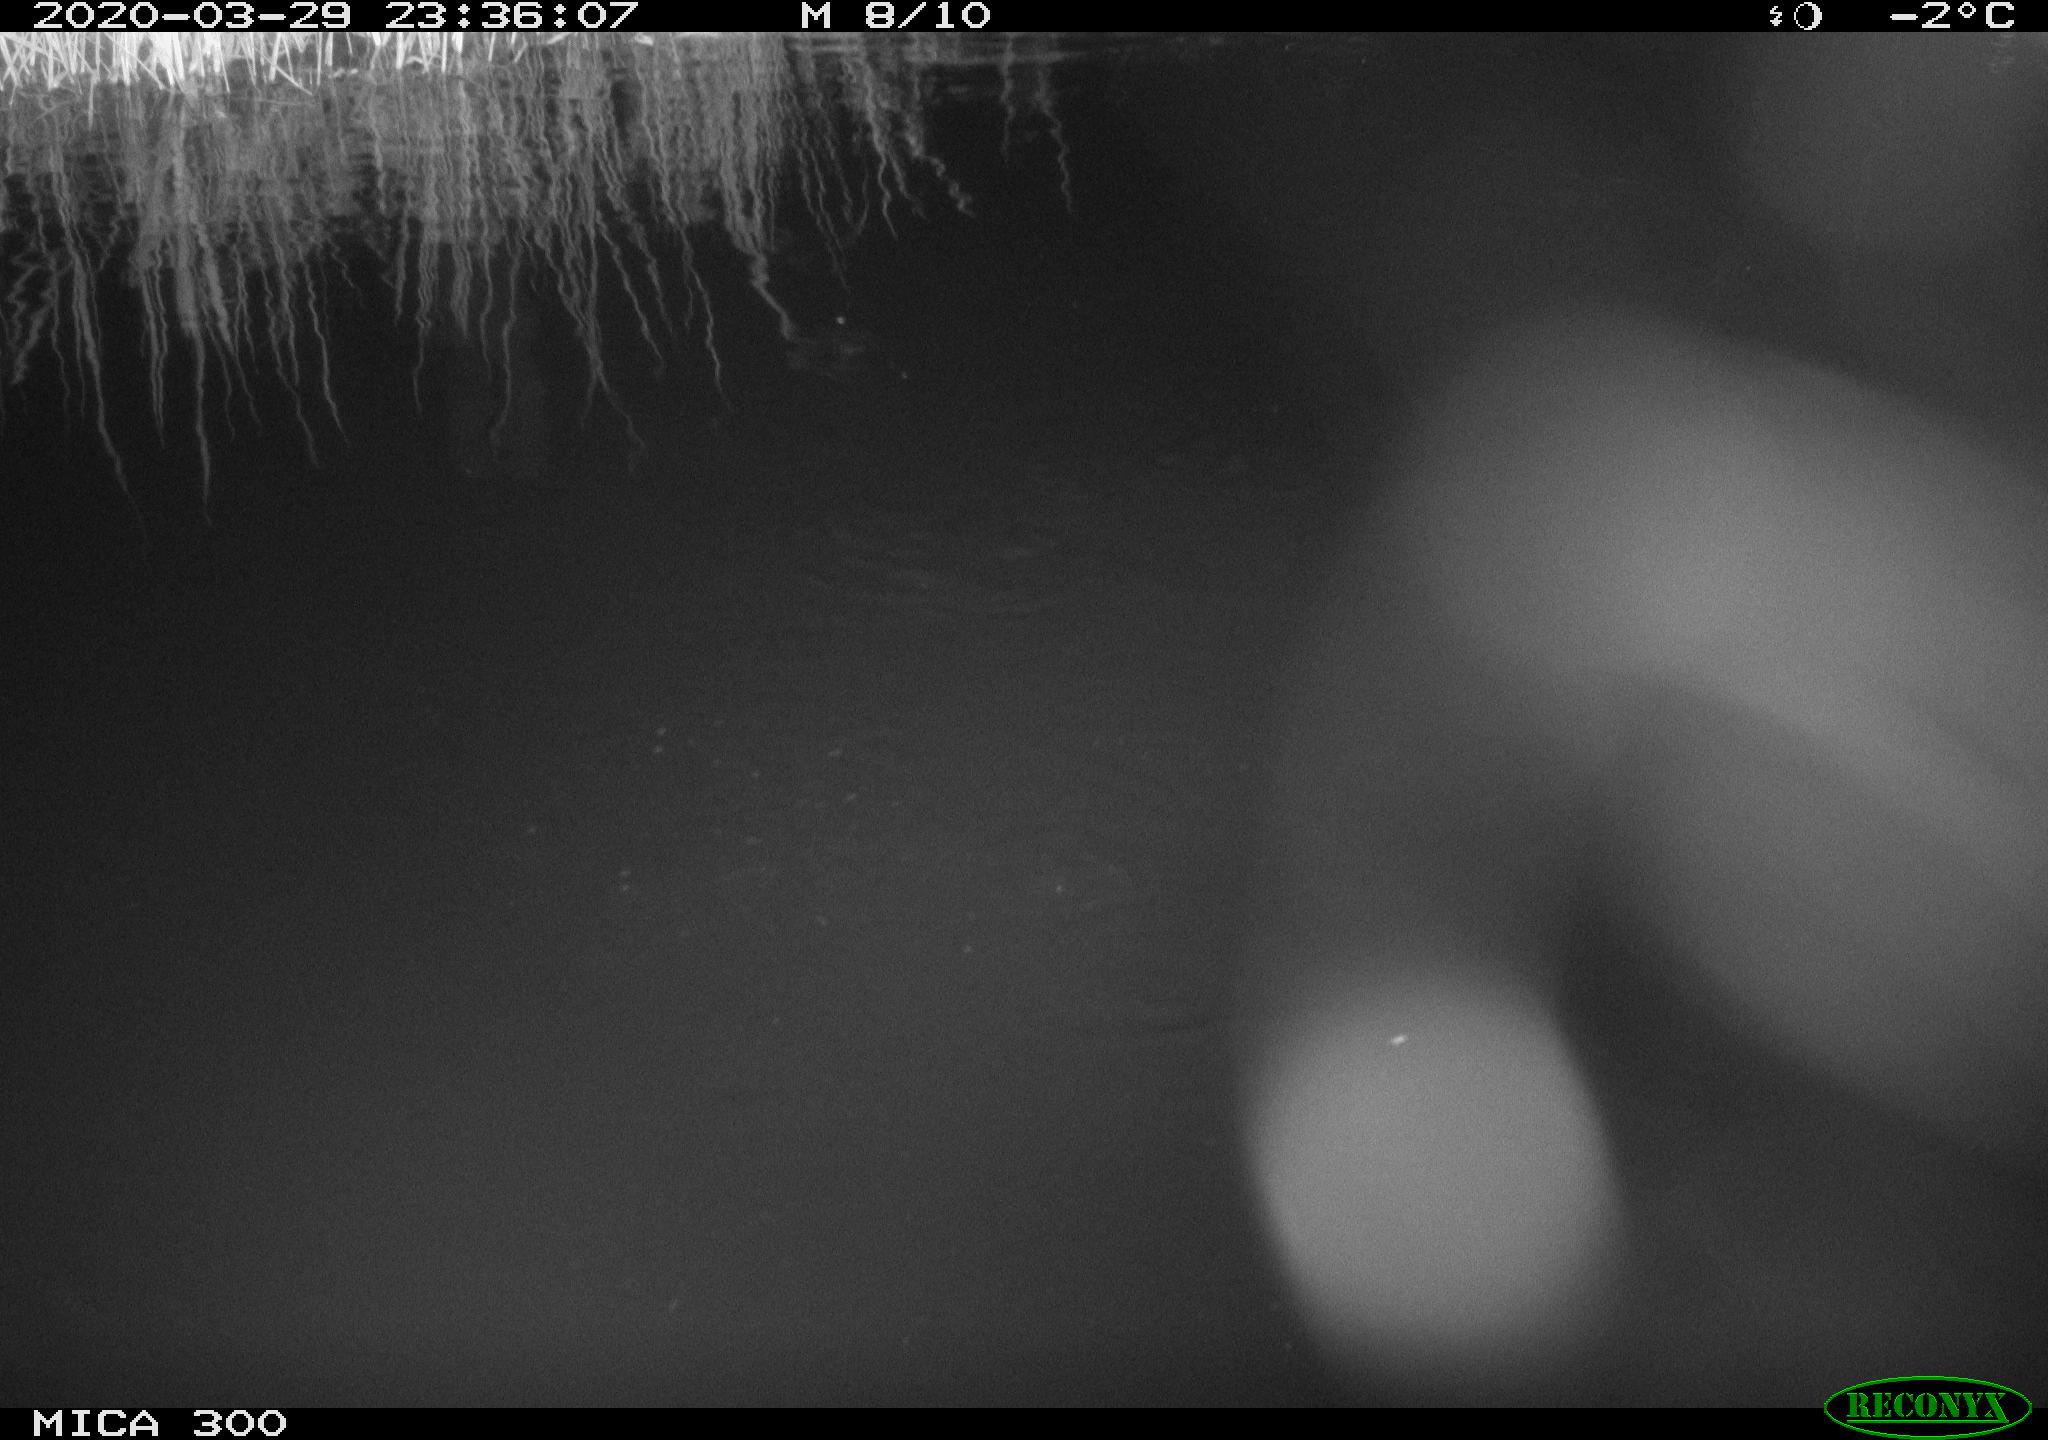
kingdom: Animalia
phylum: Chordata
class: Mammalia
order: Rodentia
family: Castoridae
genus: Castor
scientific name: Castor fiber
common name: Eurasian beaver
